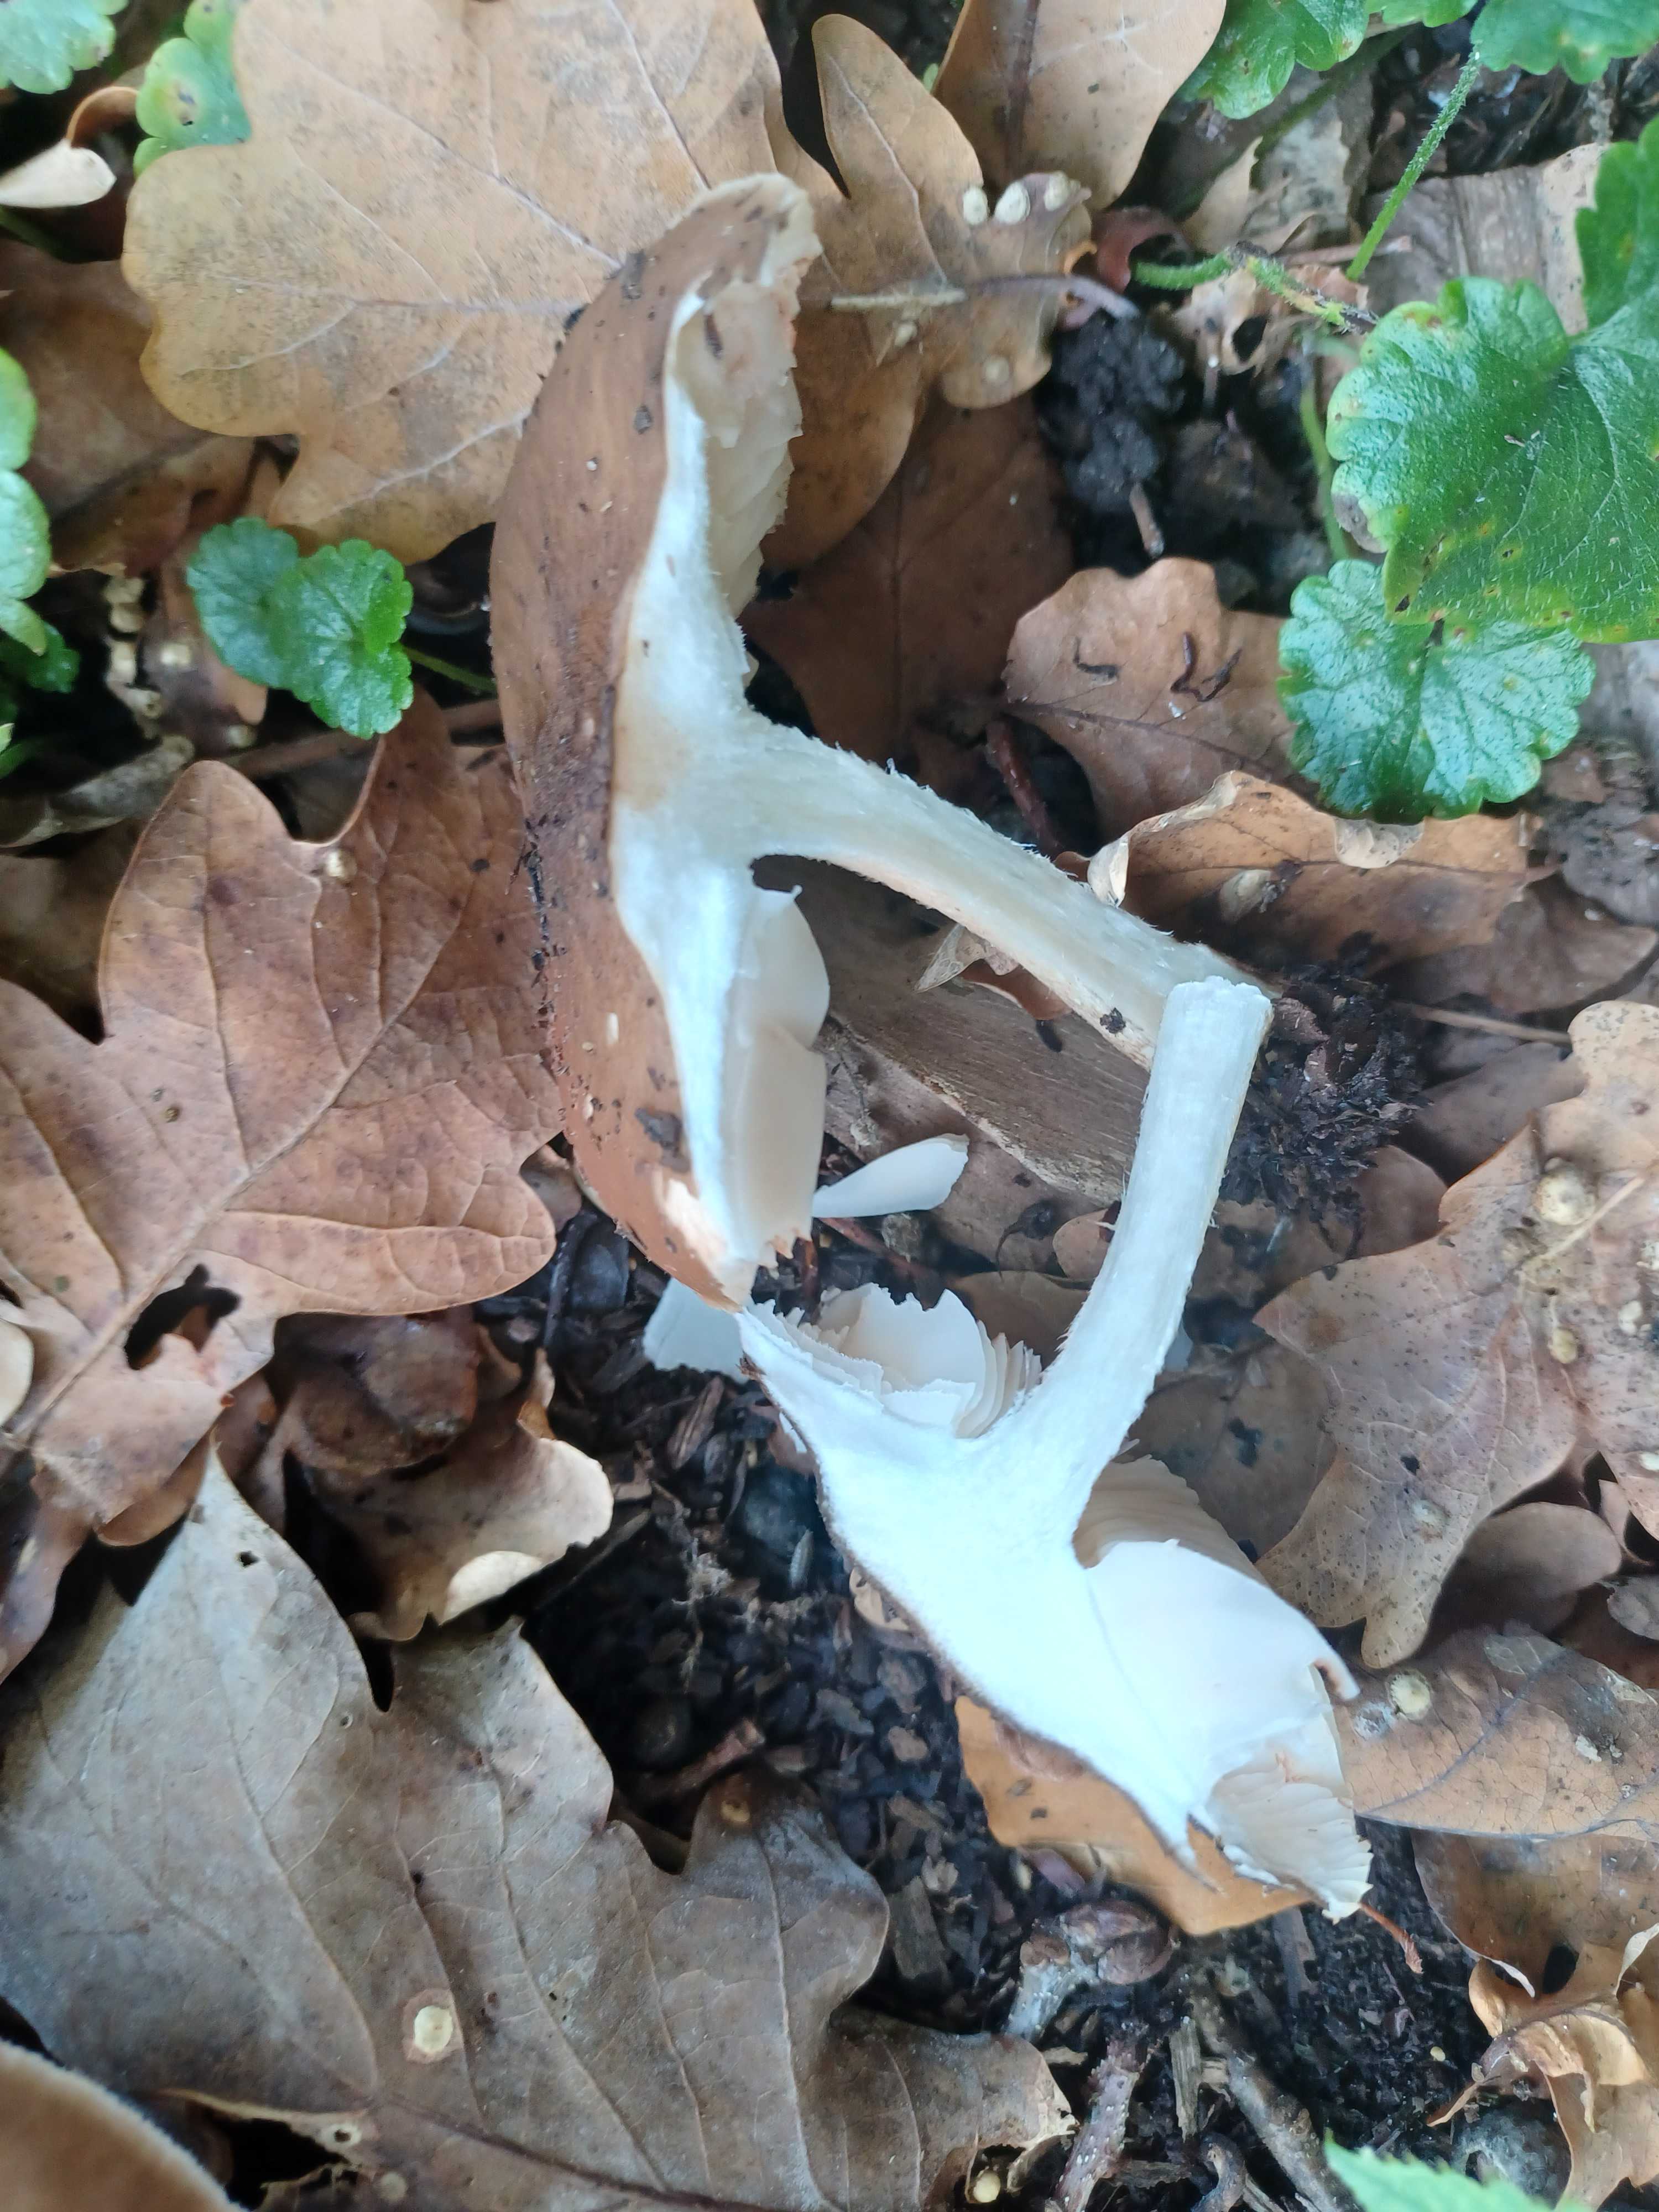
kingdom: Fungi
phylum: Basidiomycota
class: Agaricomycetes
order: Agaricales
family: Pluteaceae
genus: Pluteus
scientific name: Pluteus cervinus
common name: sodfarvet skærmhat
